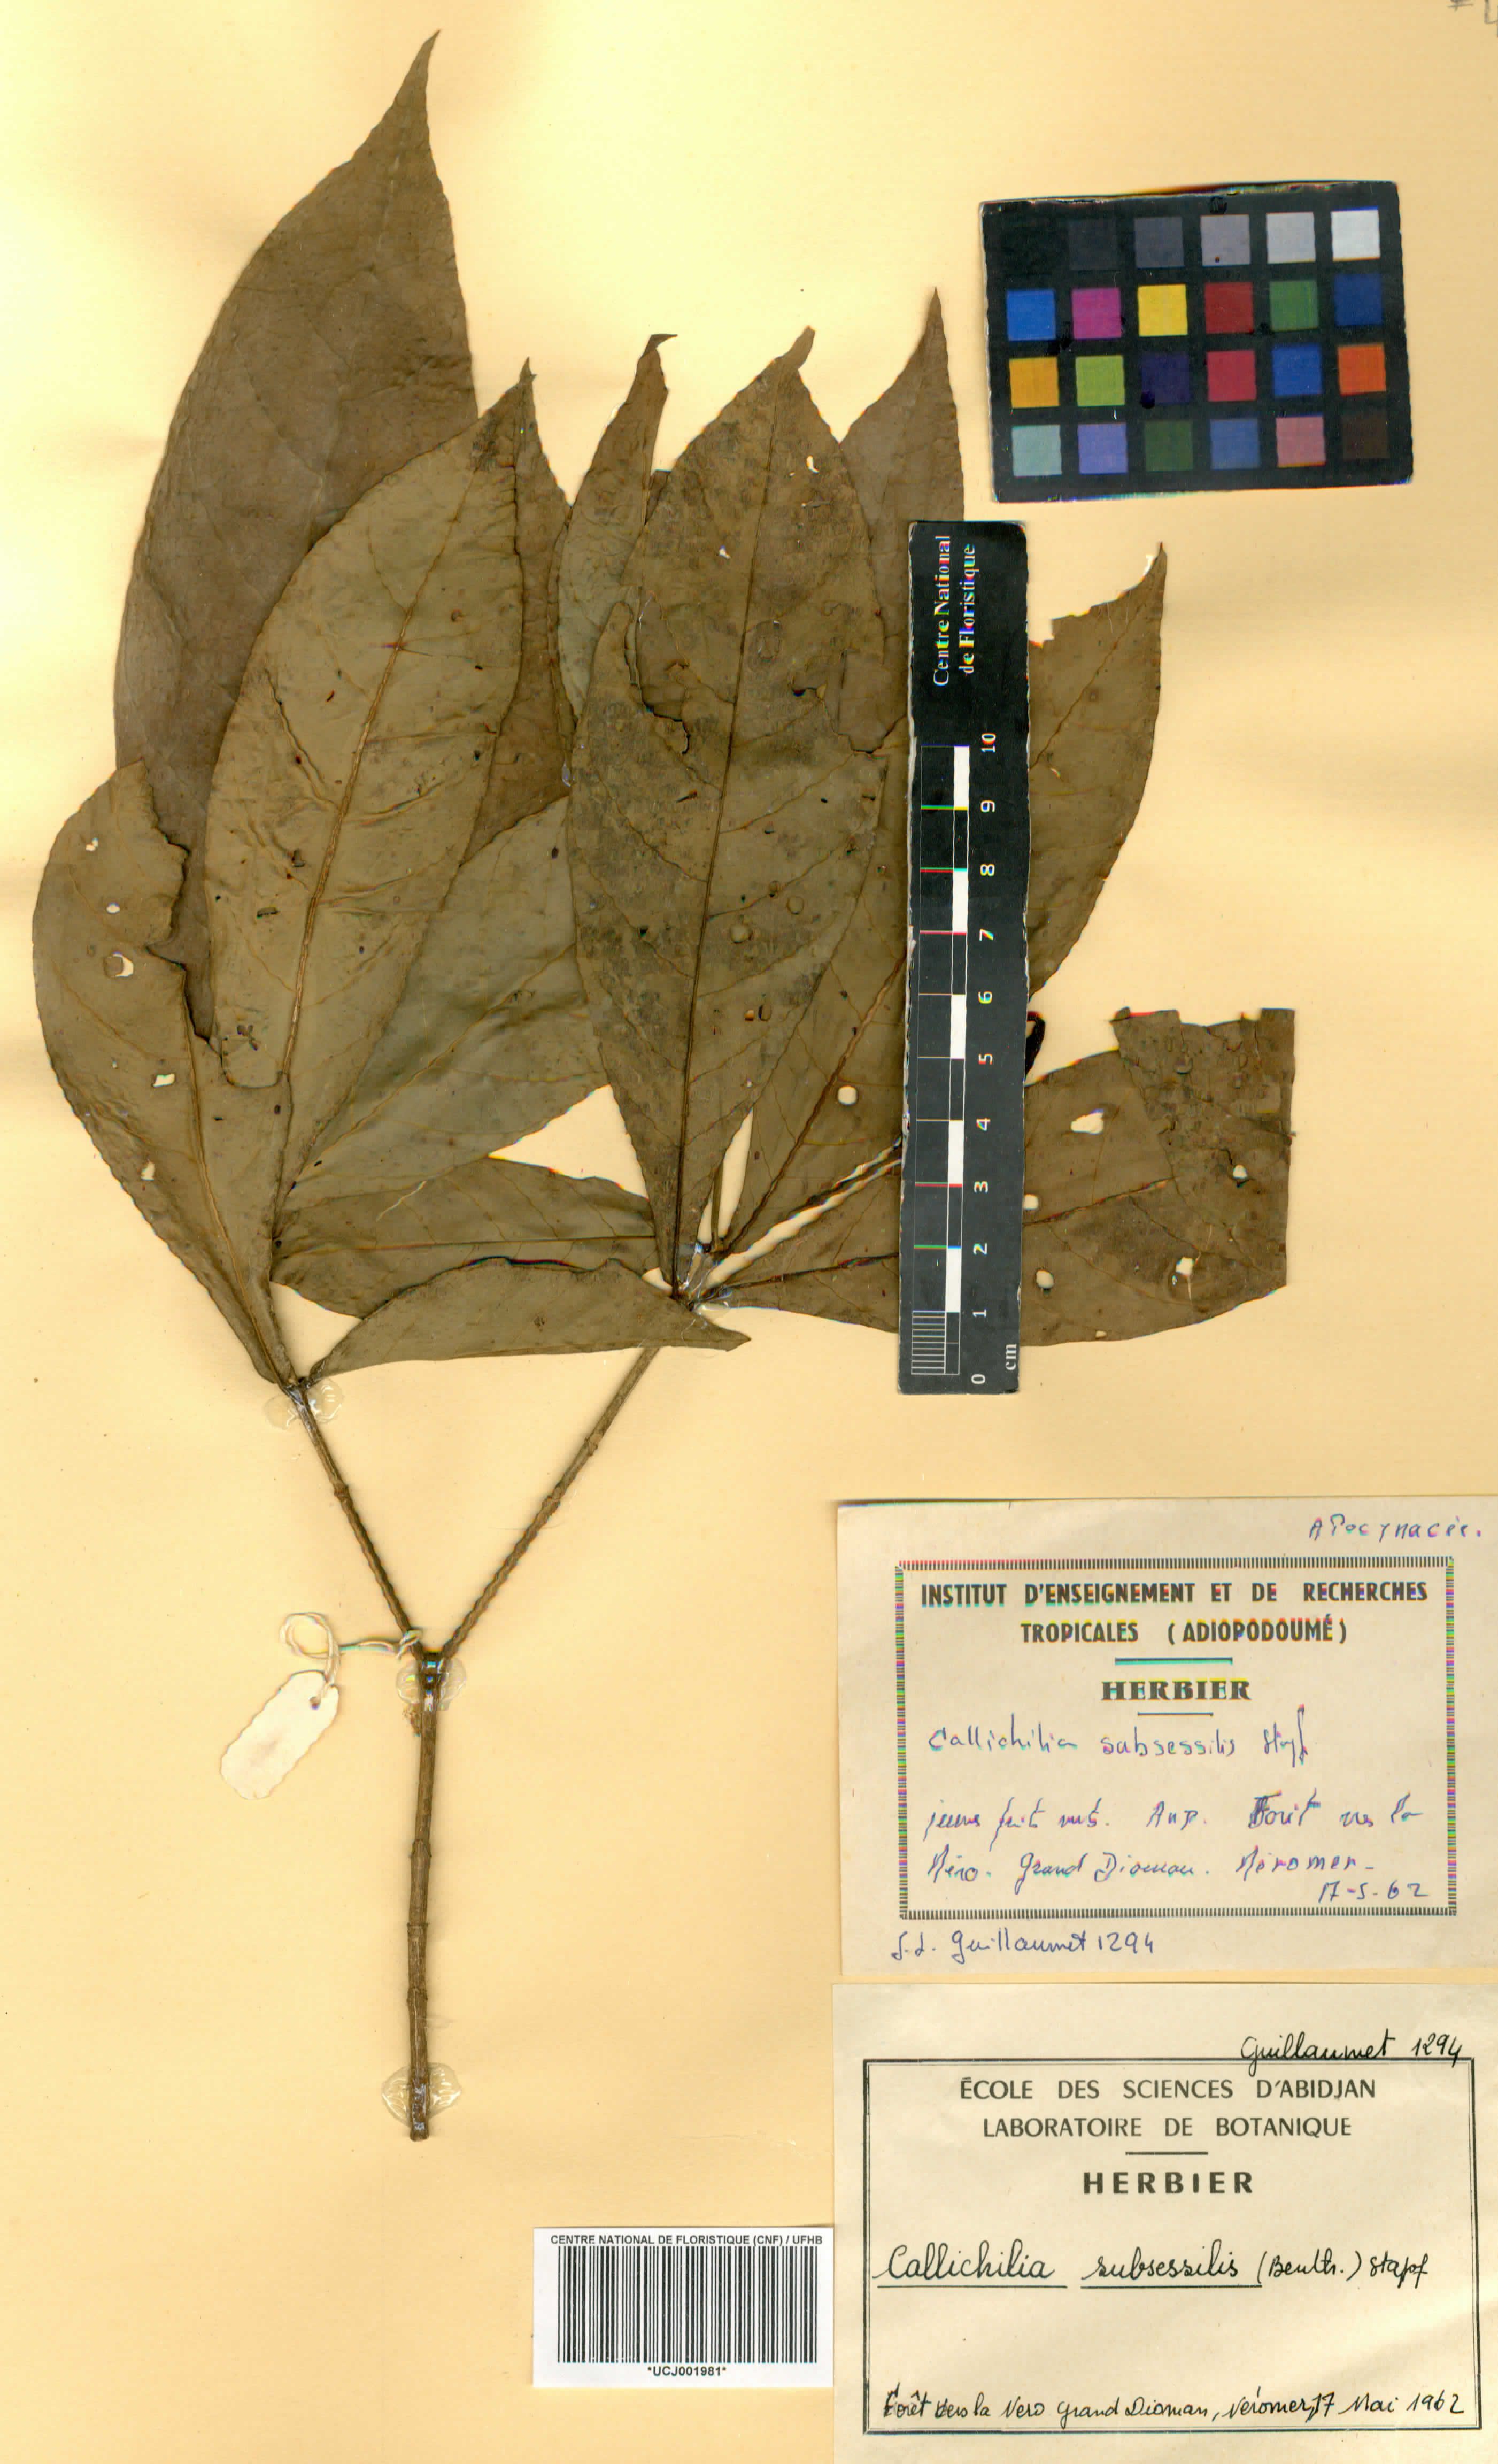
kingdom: Plantae
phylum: Tracheophyta
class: Magnoliopsida
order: Gentianales
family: Apocynaceae
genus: Callichilia
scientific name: Callichilia subsessilis
